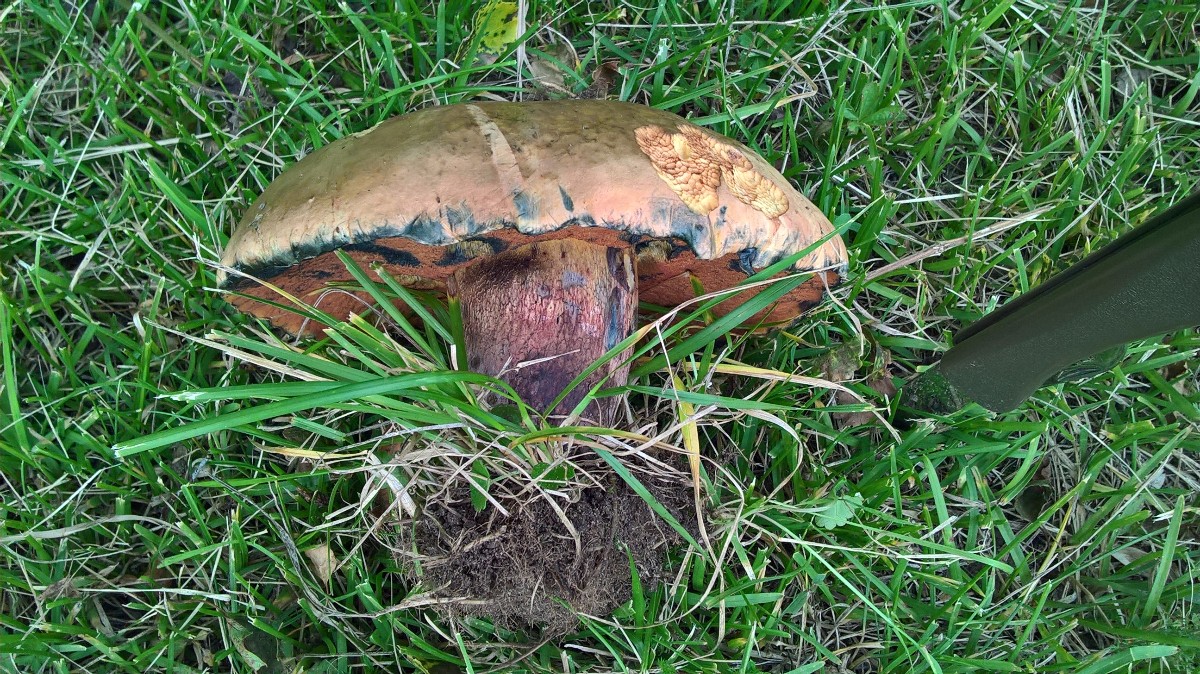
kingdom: Fungi
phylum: Basidiomycota
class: Agaricomycetes
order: Boletales
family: Boletaceae
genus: Suillellus
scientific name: Suillellus luridus
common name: netstokket indigorørhat
